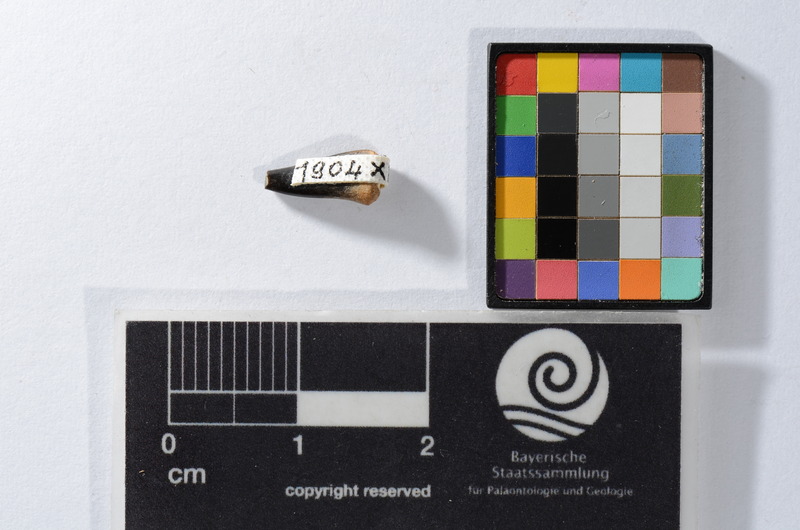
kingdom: Animalia
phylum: Chordata
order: Perciformes
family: Sphyraenidae
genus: Sphyraena
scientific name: Sphyraena Saurocephalus fajumensis
